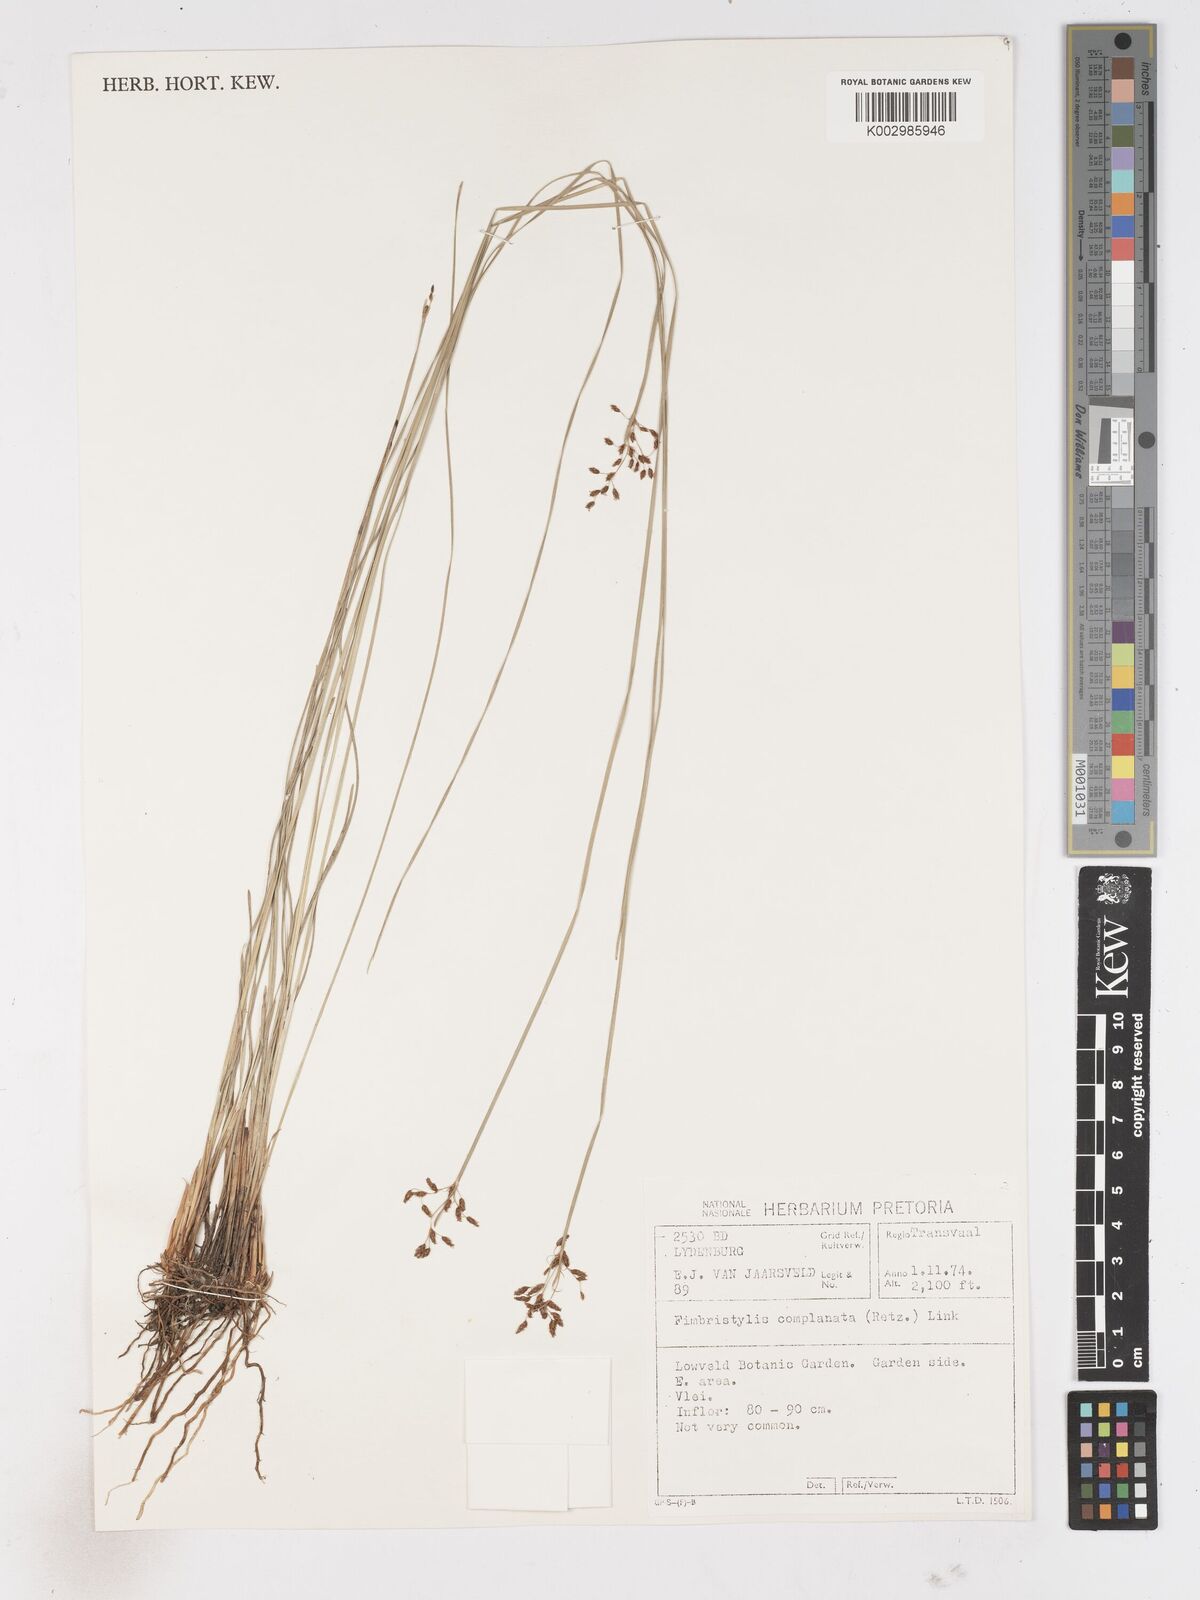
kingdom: Plantae
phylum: Tracheophyta
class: Liliopsida
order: Poales
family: Cyperaceae
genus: Fimbristylis
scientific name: Fimbristylis complanata
